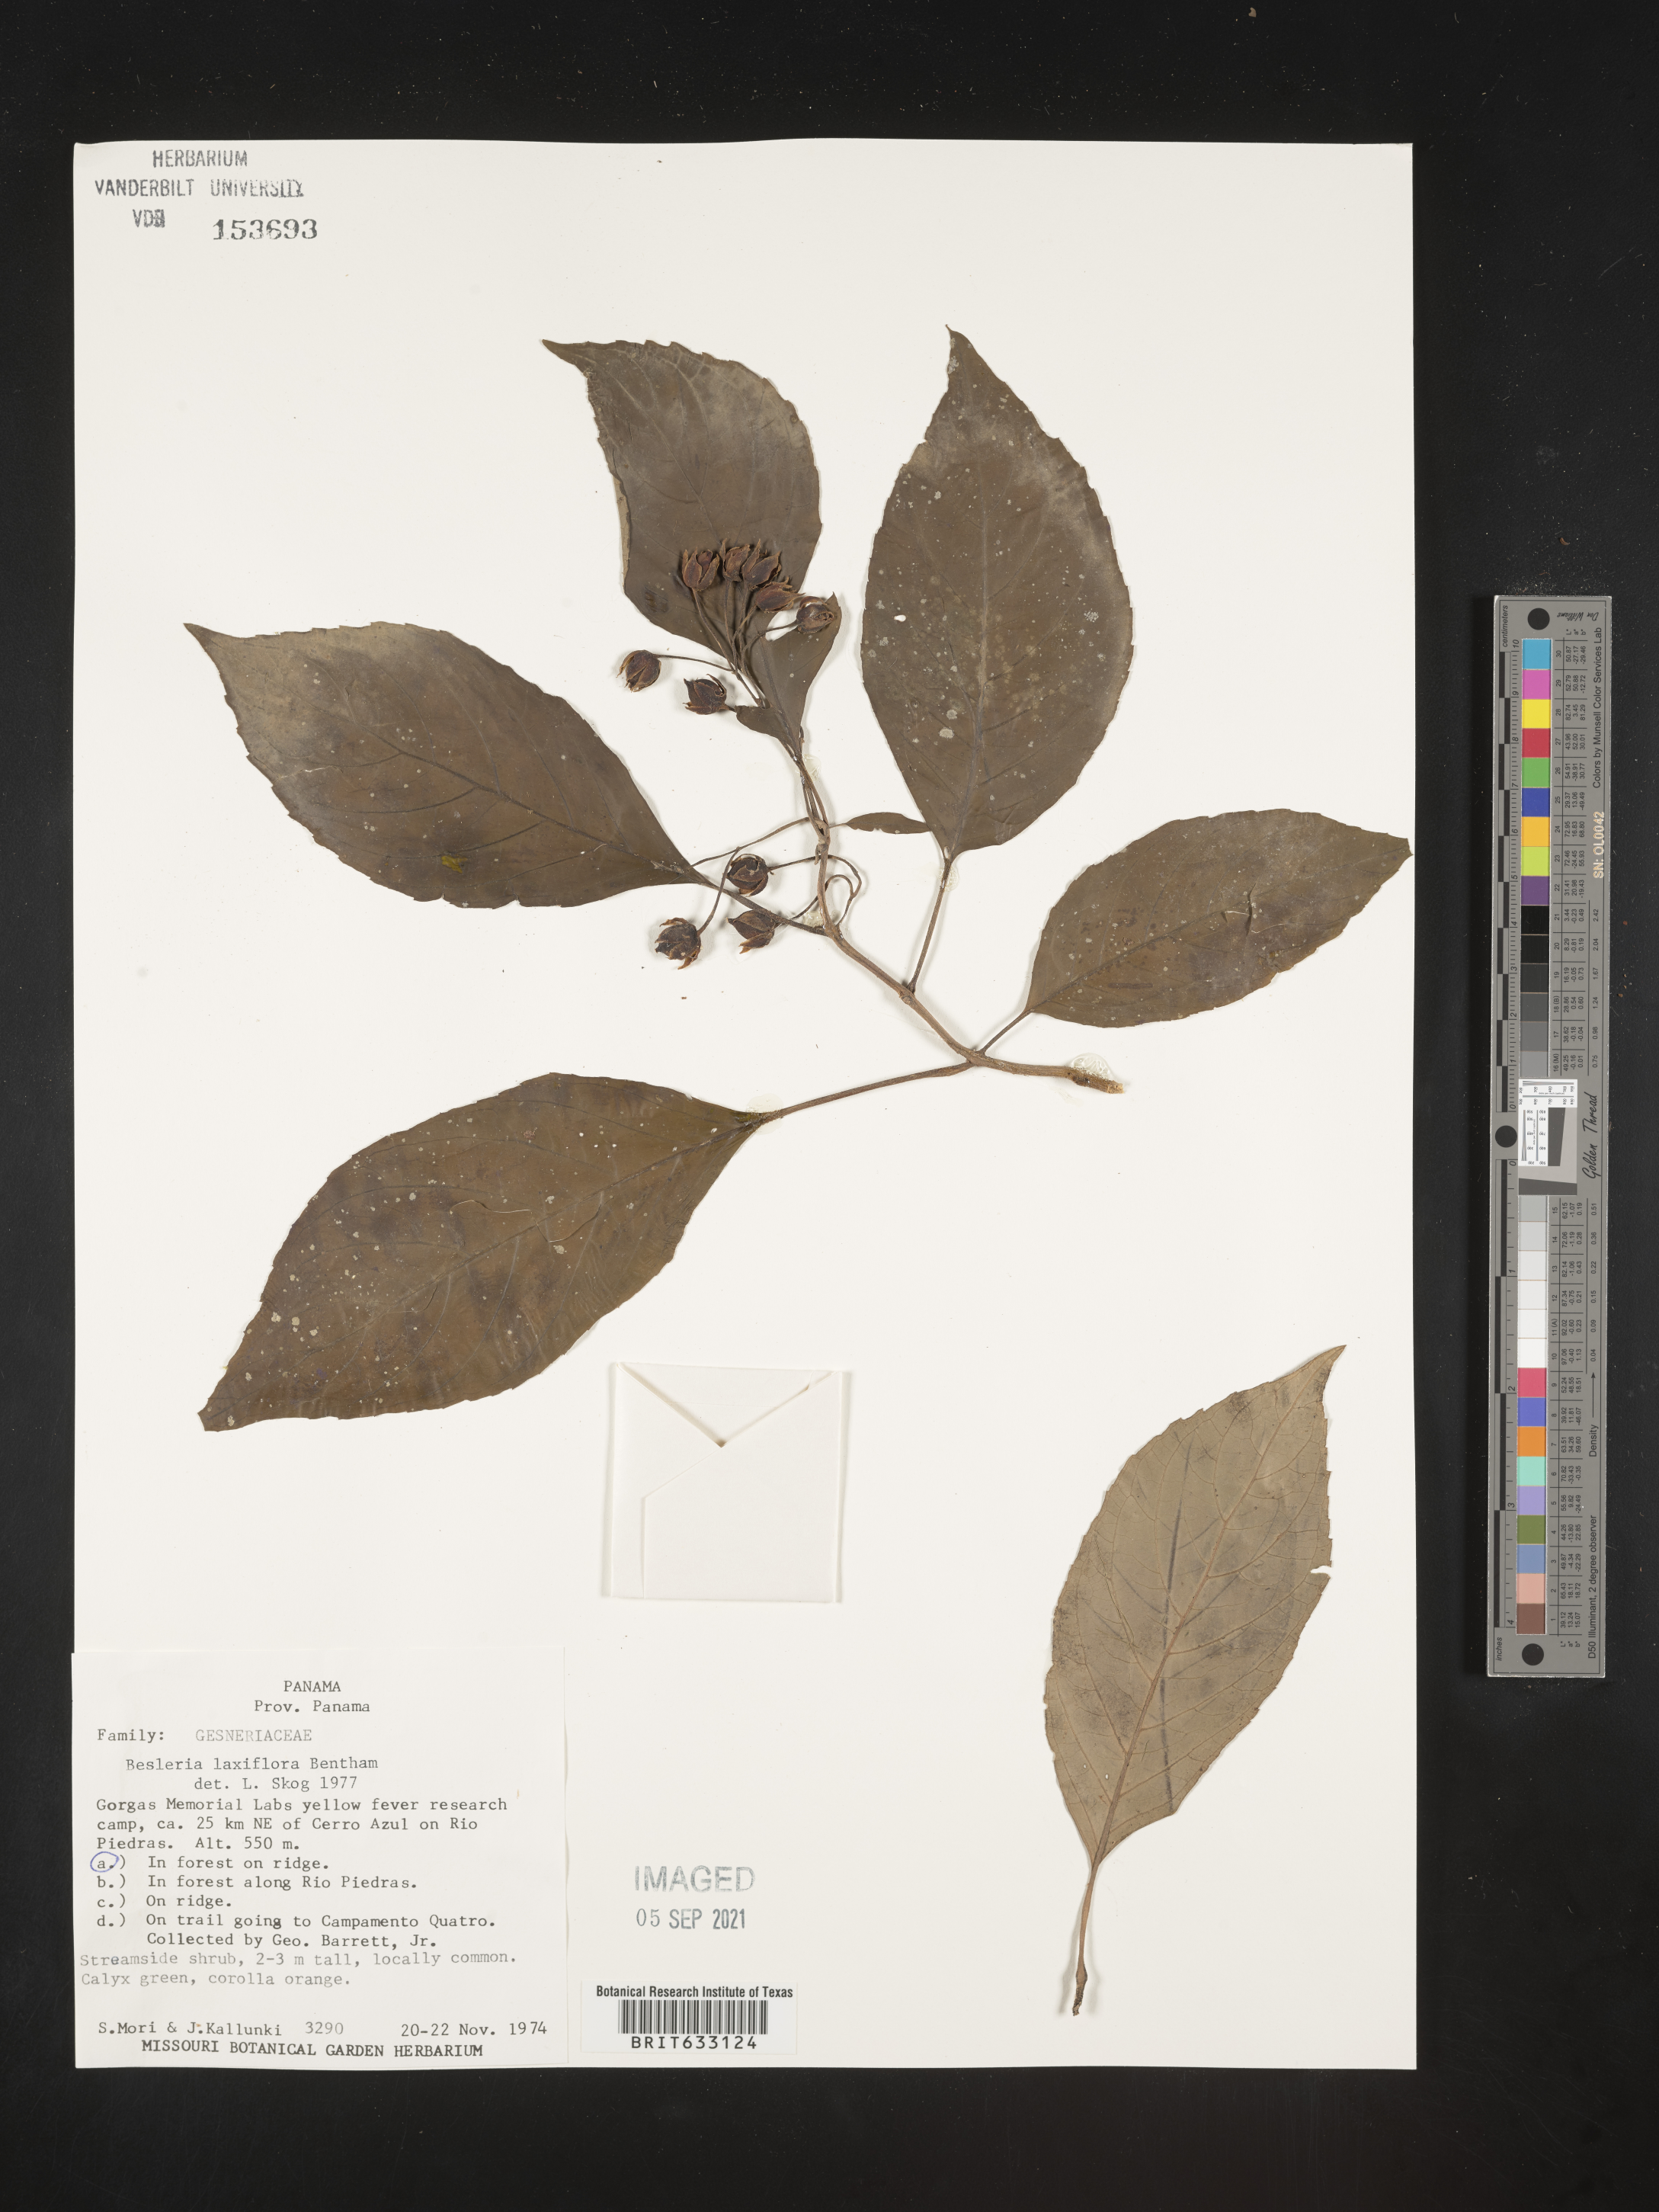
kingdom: Plantae
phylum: Tracheophyta
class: Magnoliopsida
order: Lamiales
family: Gesneriaceae
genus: Besleria
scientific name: Besleria
